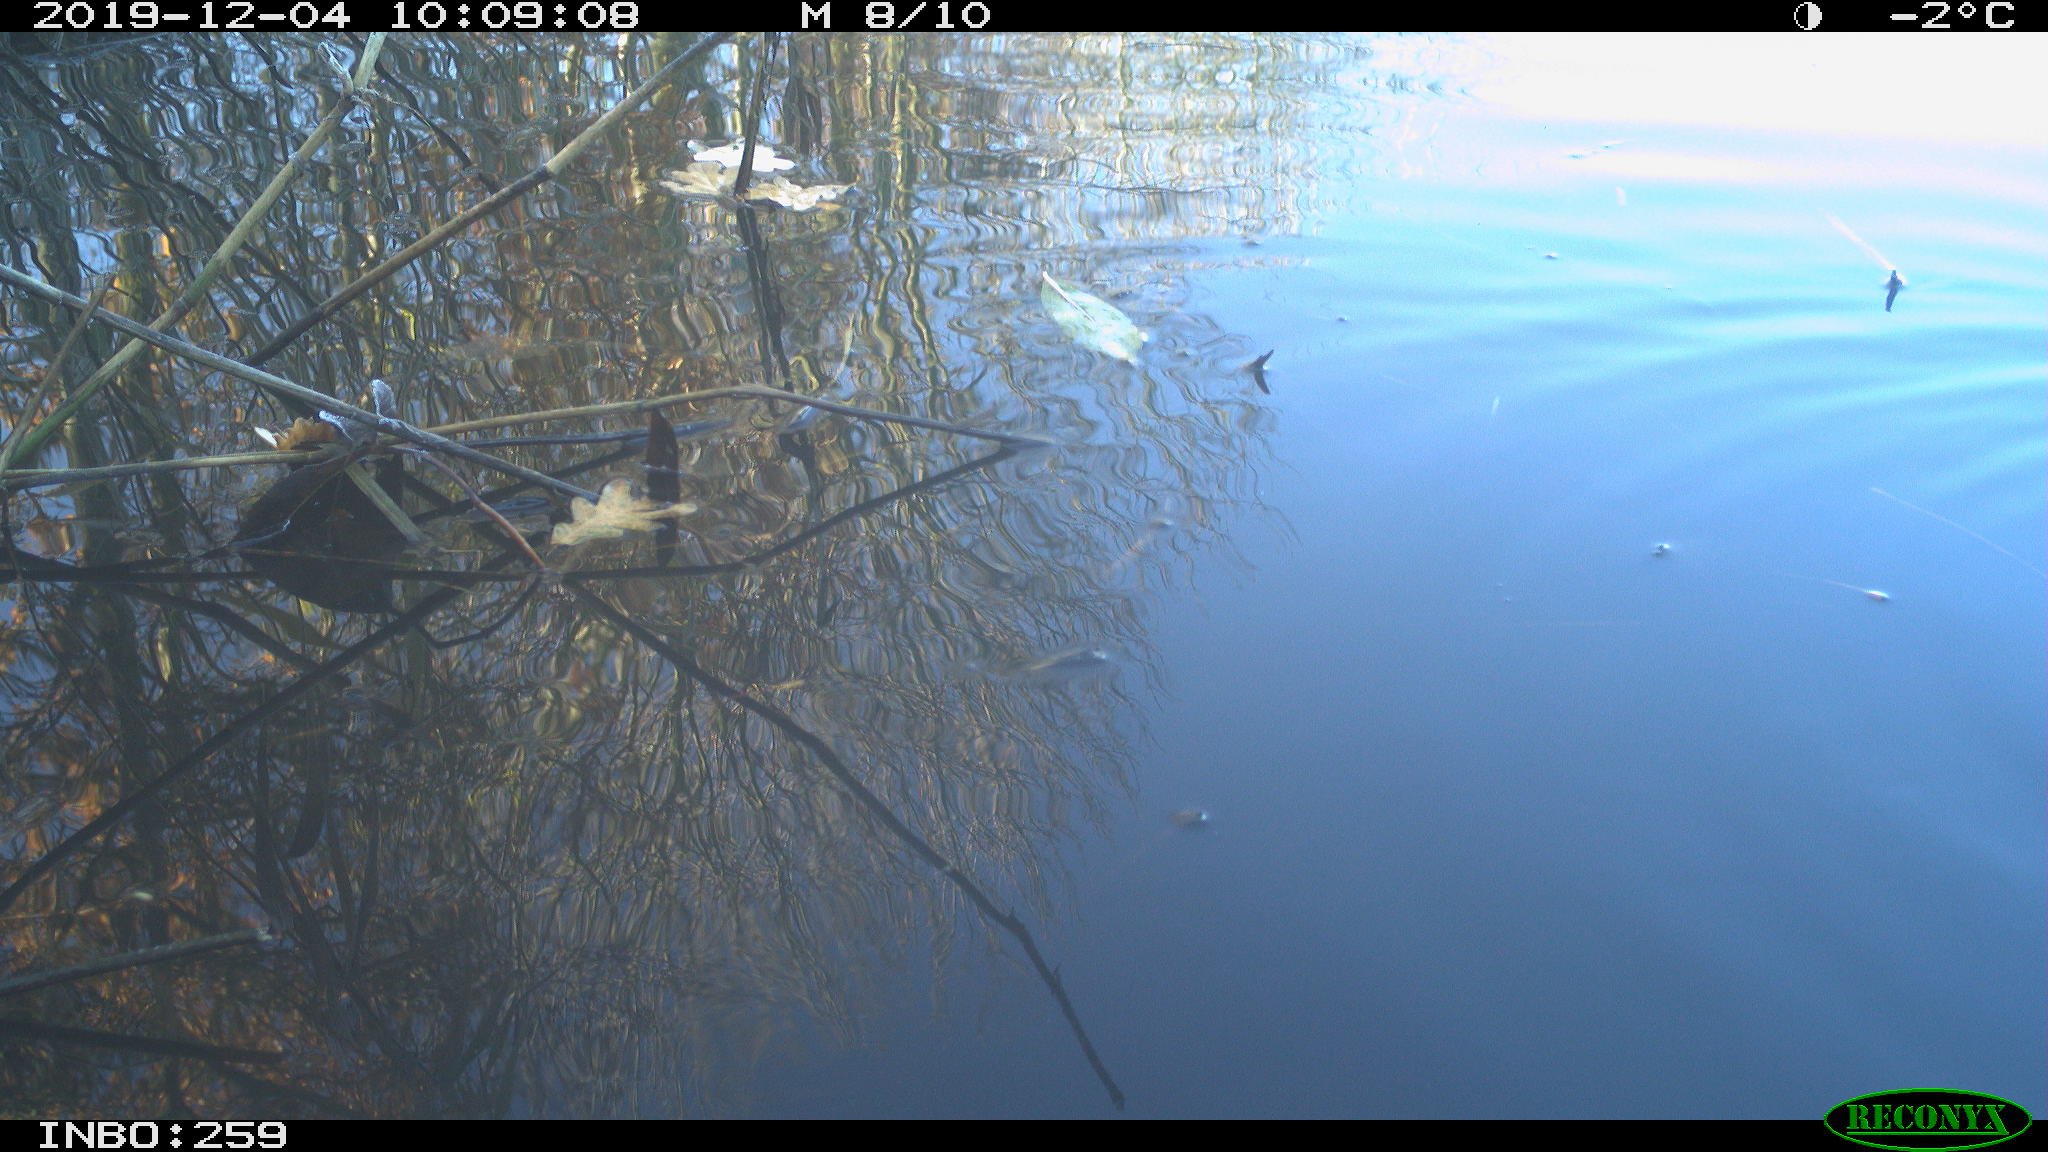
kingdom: Animalia
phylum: Chordata
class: Aves
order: Gruiformes
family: Rallidae
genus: Gallinula
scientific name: Gallinula chloropus
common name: Common moorhen
